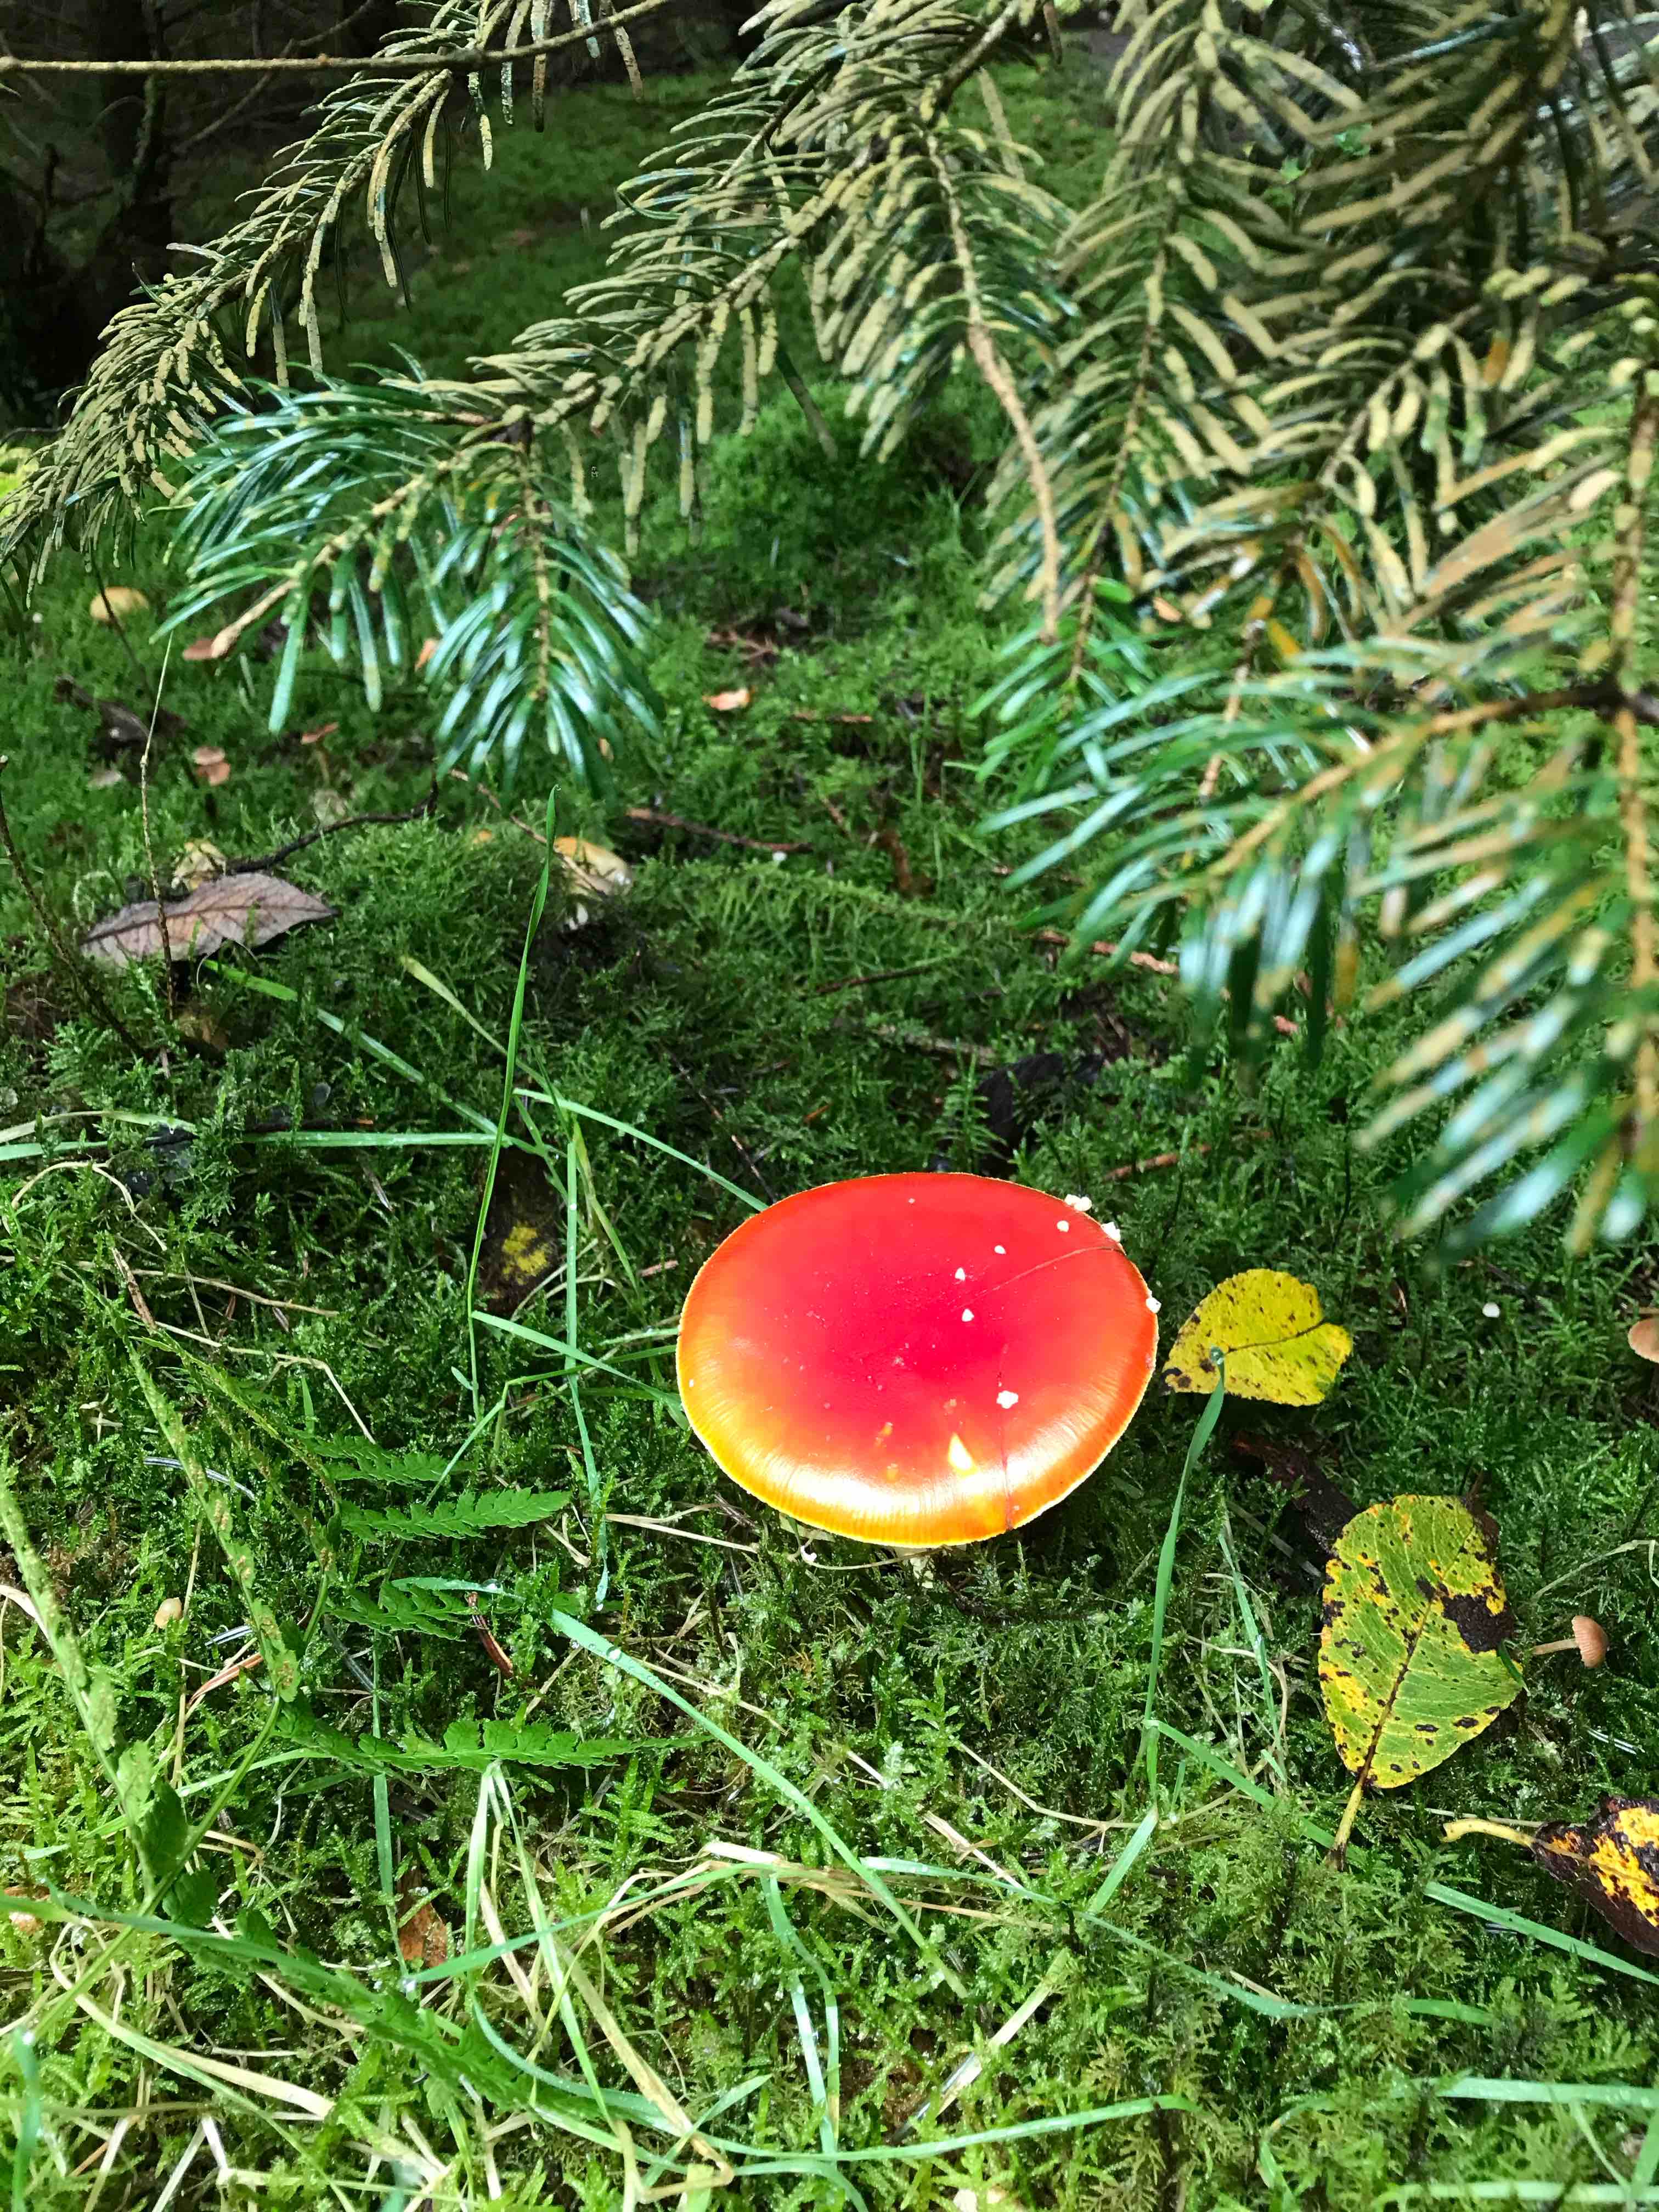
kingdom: Fungi
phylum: Basidiomycota
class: Agaricomycetes
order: Agaricales
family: Amanitaceae
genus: Amanita
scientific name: Amanita muscaria
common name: rød fluesvamp
